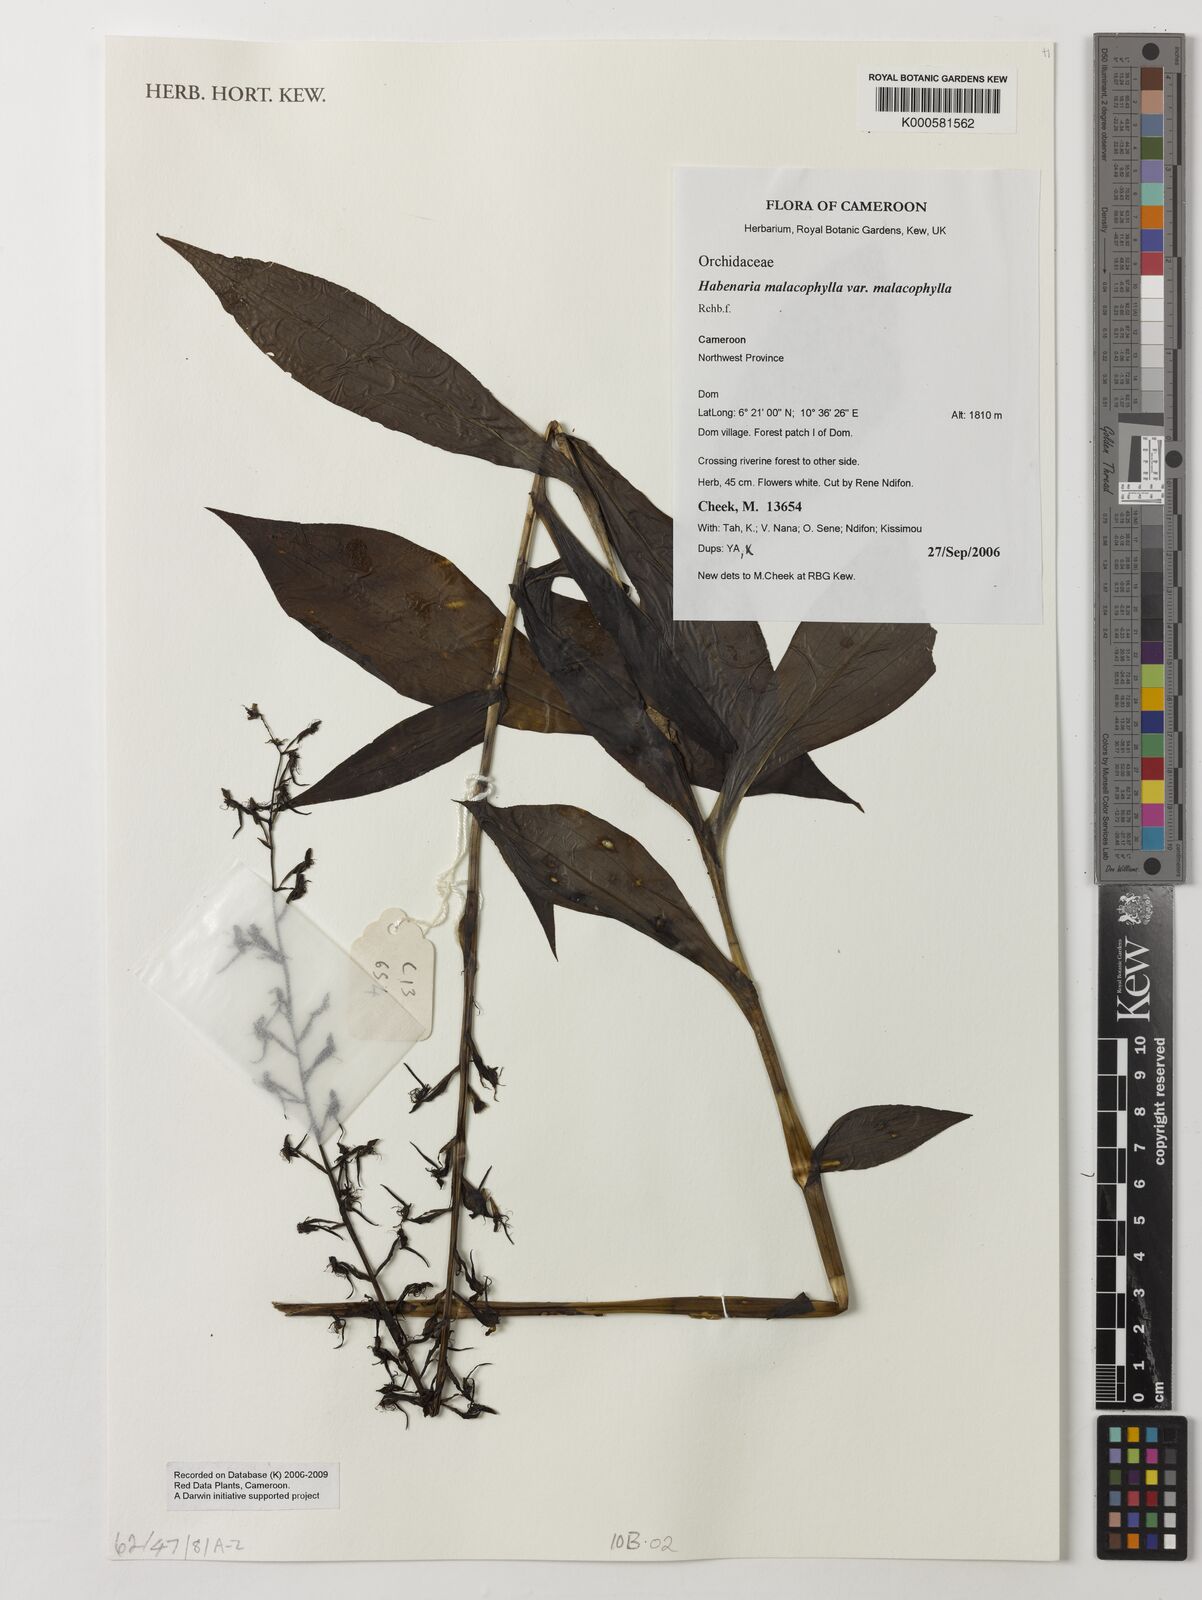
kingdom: Plantae
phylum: Tracheophyta
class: Liliopsida
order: Asparagales
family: Orchidaceae
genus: Habenaria
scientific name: Habenaria malacophylla
